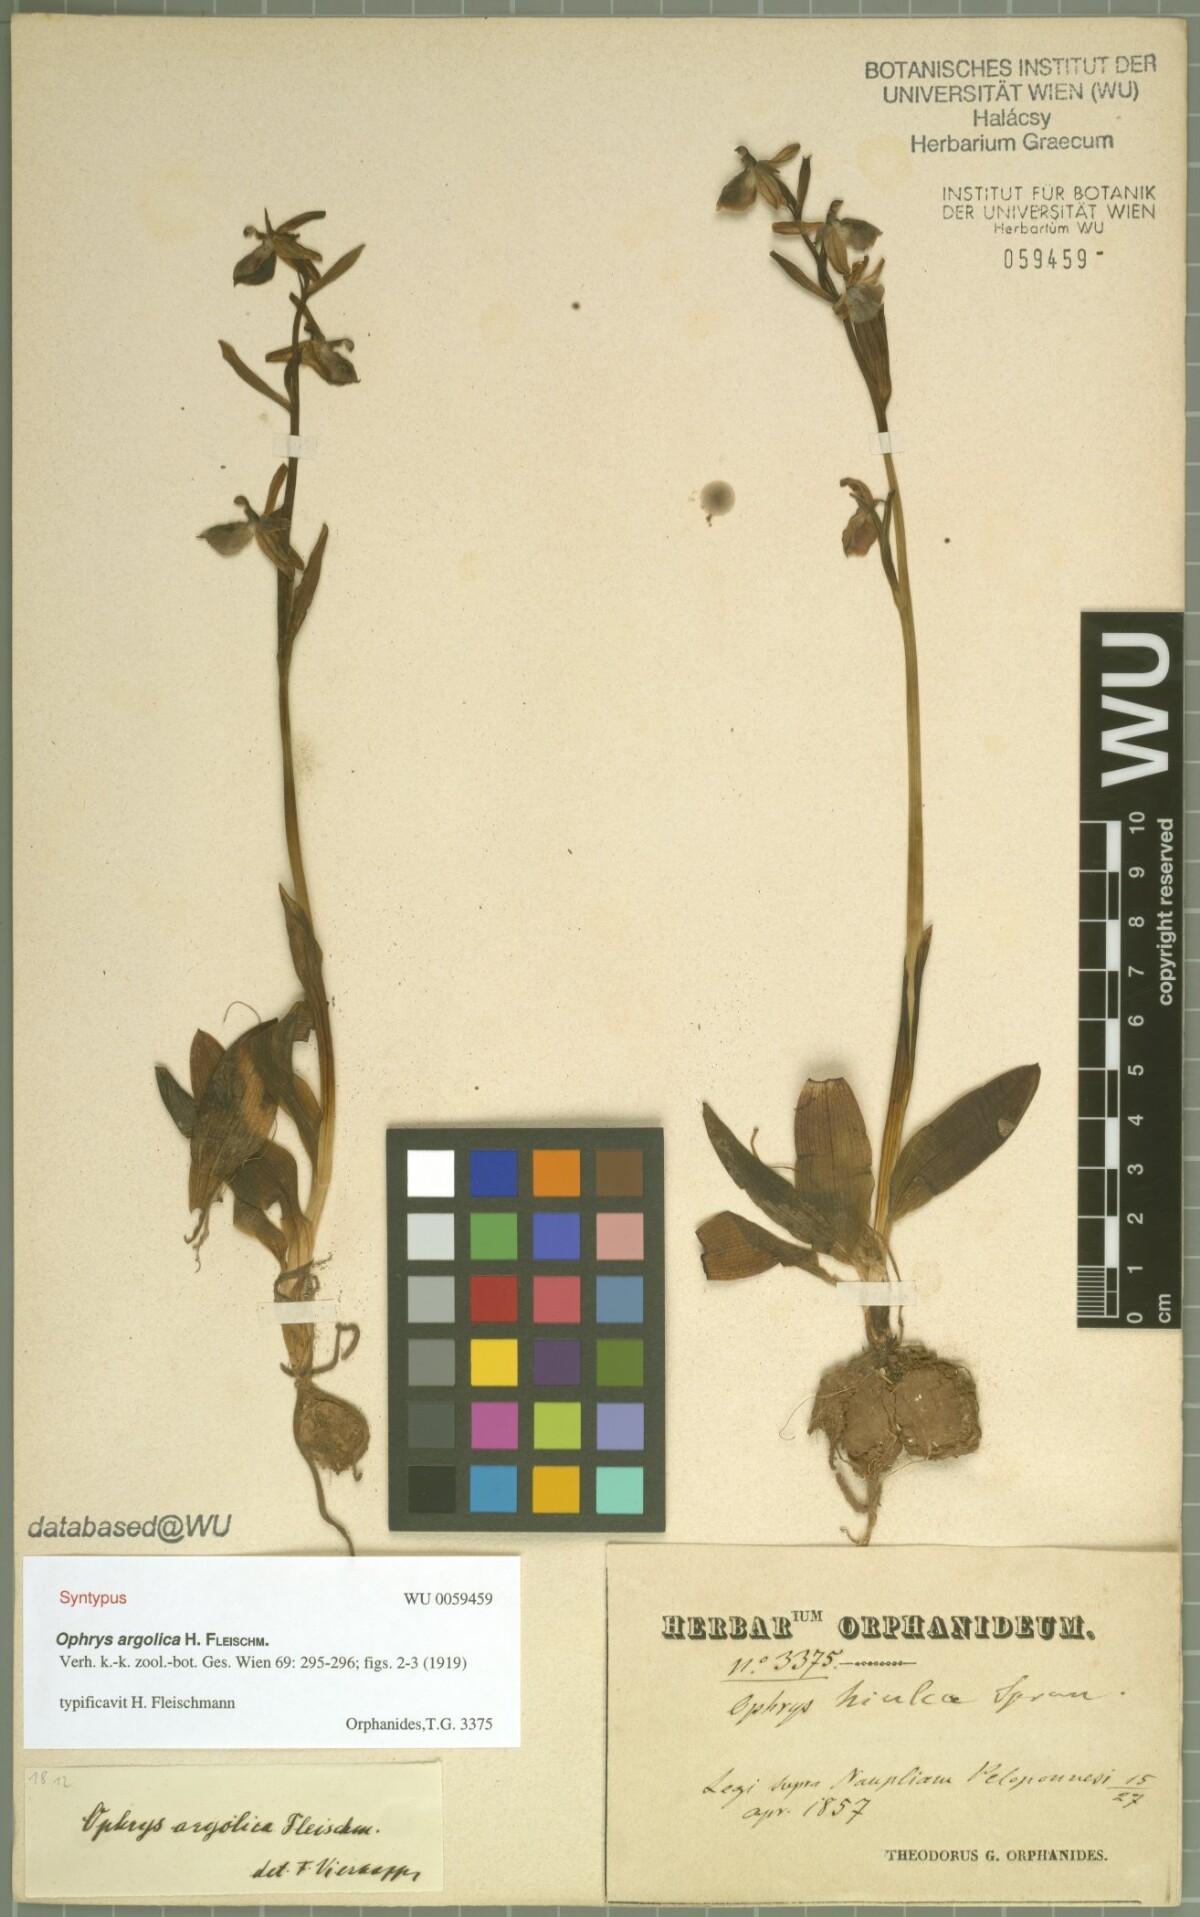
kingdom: Plantae
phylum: Tracheophyta
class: Liliopsida
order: Asparagales
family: Orchidaceae
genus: Ophrys
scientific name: Ophrys argolica
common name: Argolic ophrys
